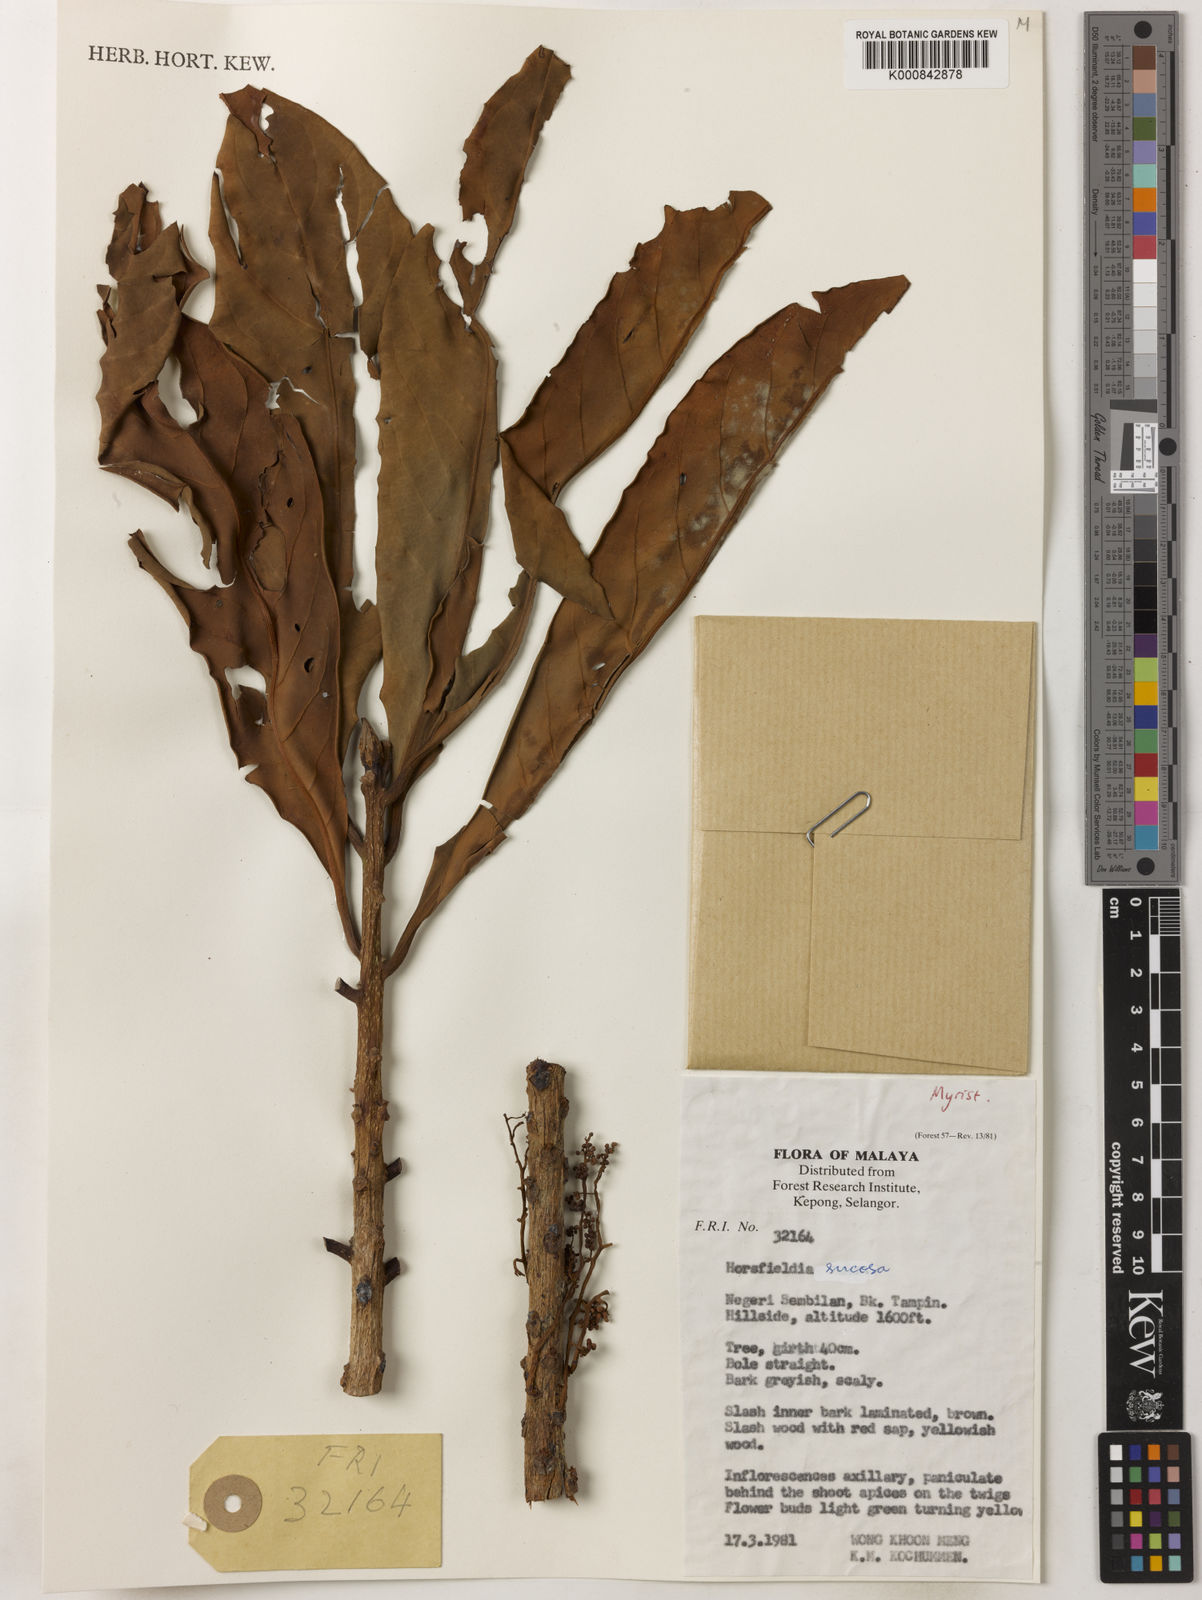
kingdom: Plantae
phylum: Tracheophyta
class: Magnoliopsida
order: Magnoliales
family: Myristicaceae
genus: Horsfieldia
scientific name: Horsfieldia sucosa
